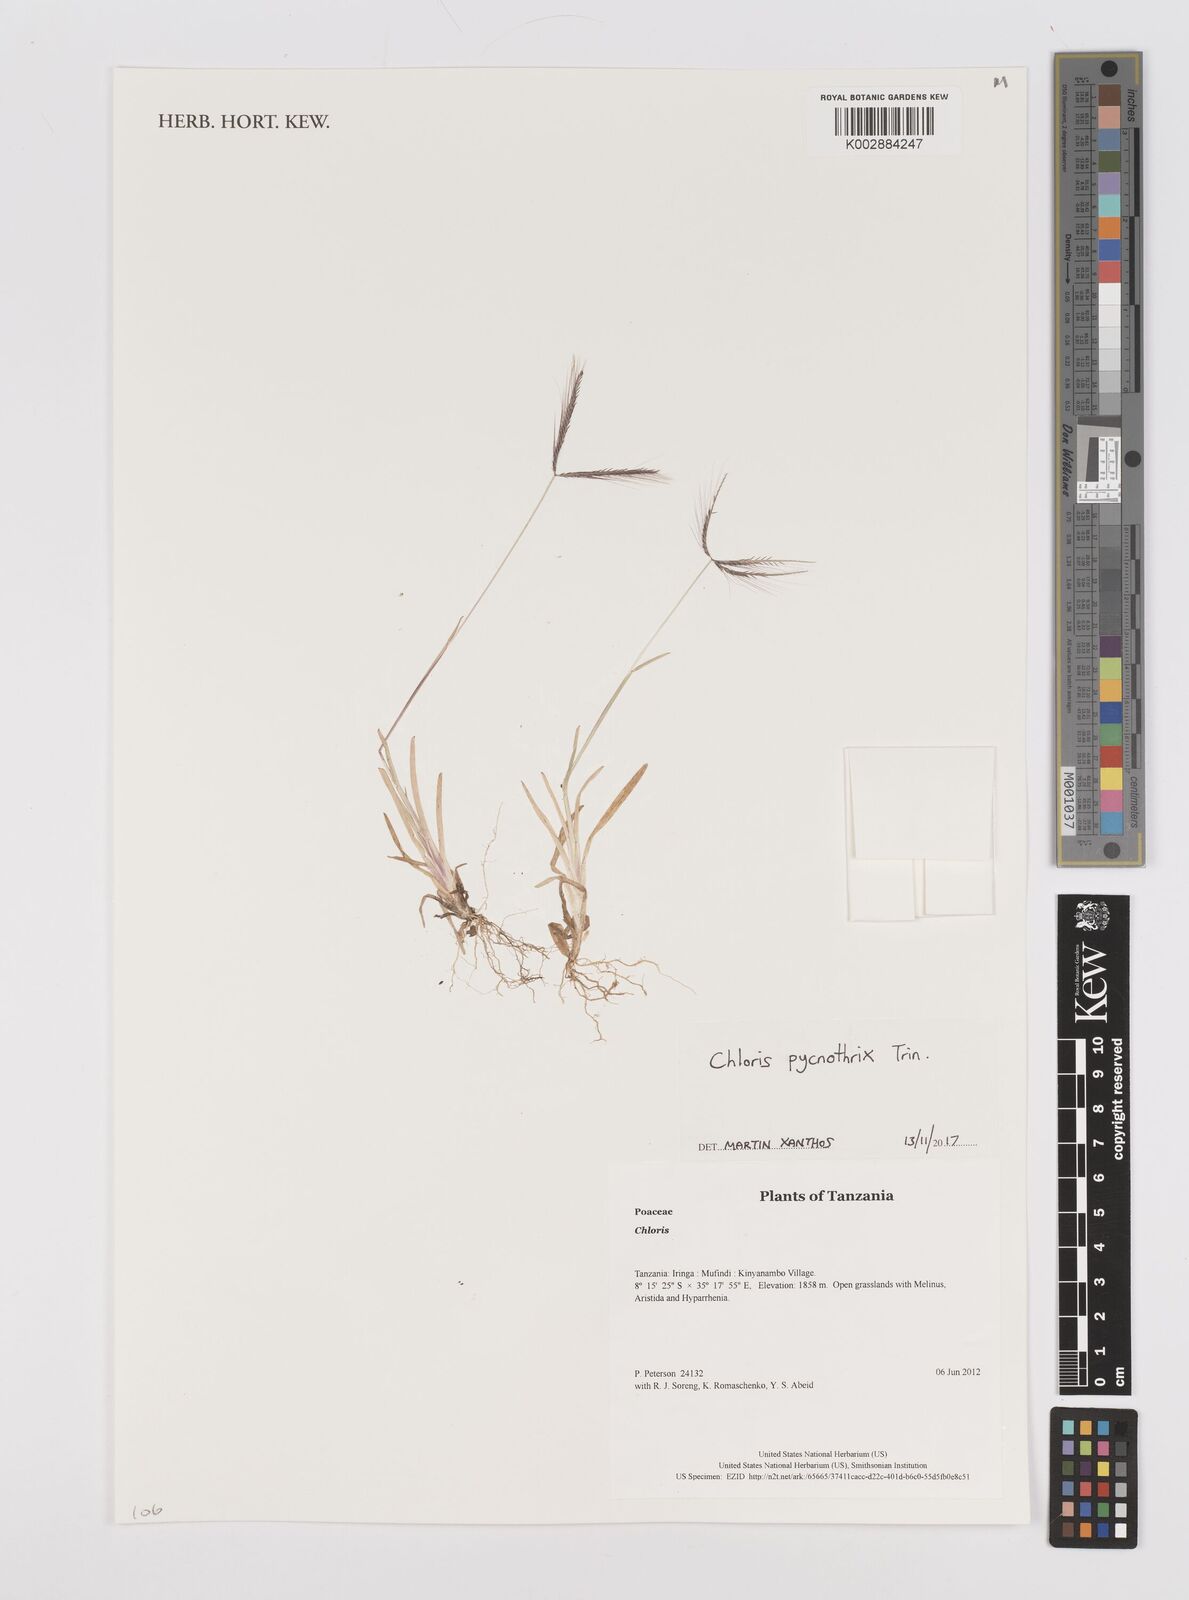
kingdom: Plantae
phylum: Tracheophyta
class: Liliopsida
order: Poales
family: Poaceae
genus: Chloris
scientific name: Chloris pycnothrix
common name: Spiderweb chloris
